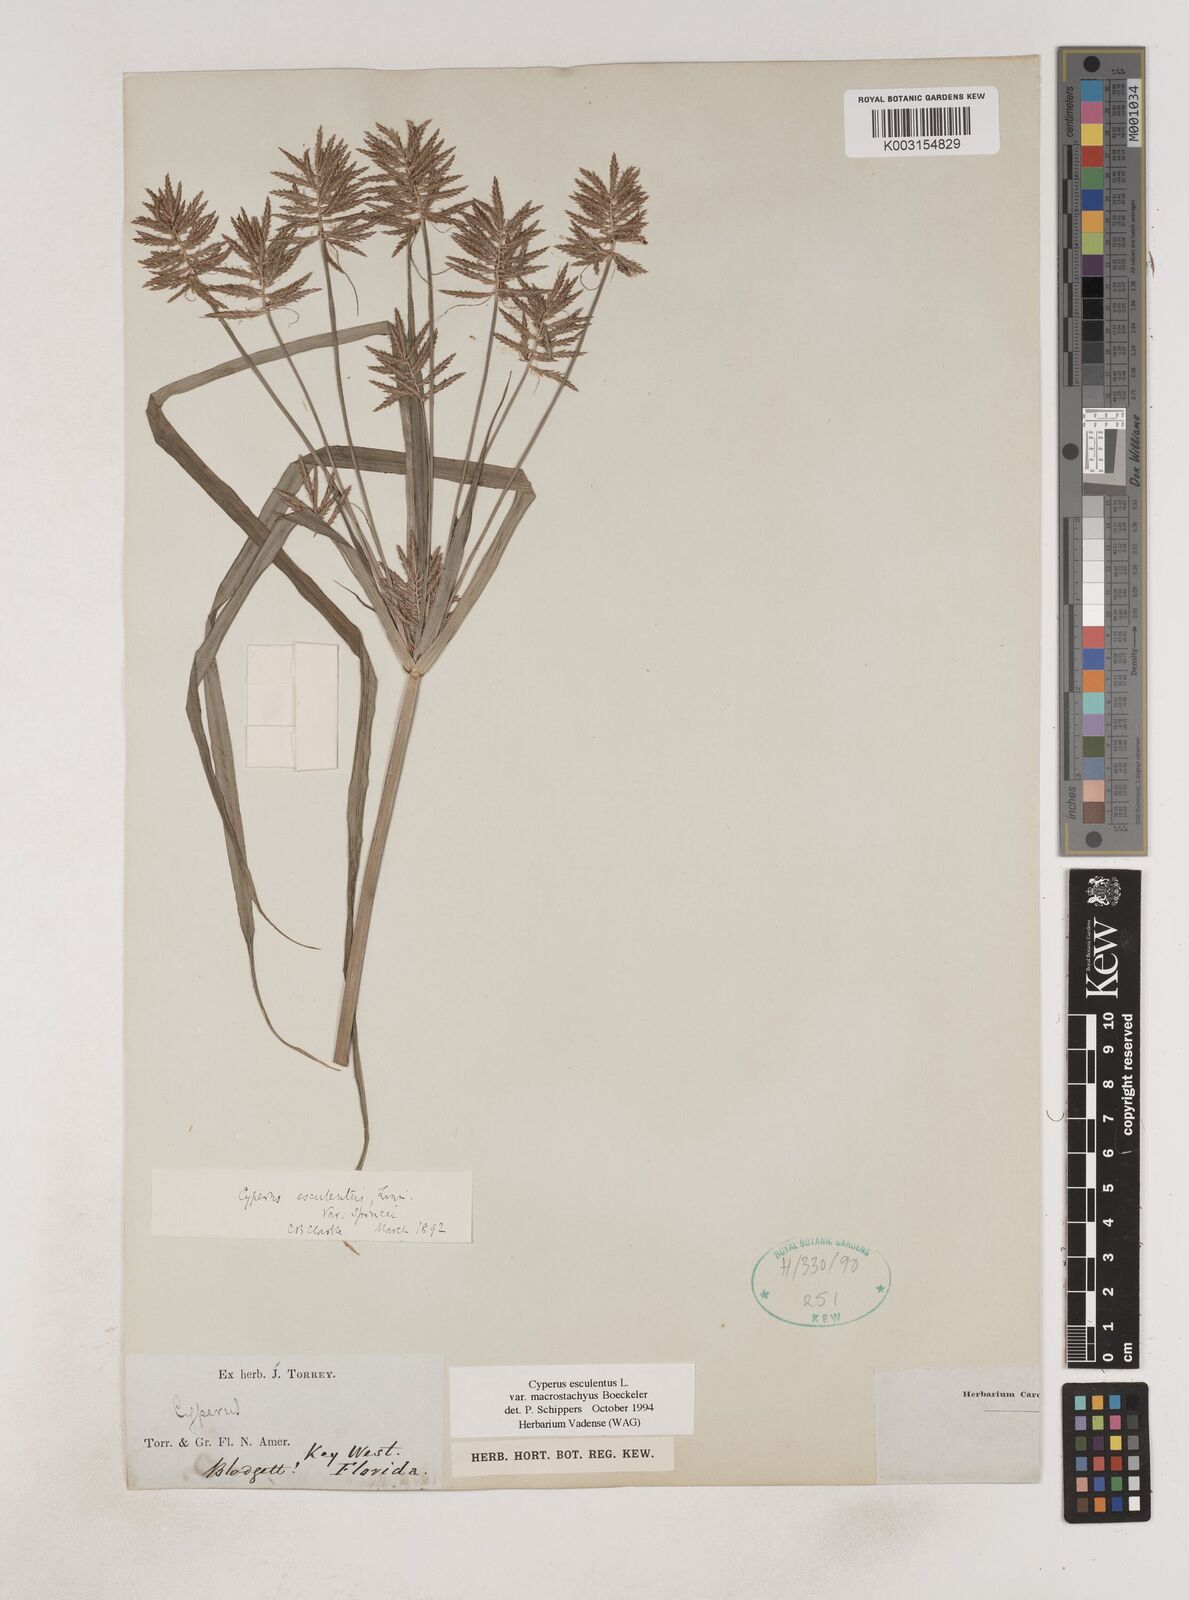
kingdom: Plantae
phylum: Tracheophyta
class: Liliopsida
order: Poales
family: Cyperaceae
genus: Cyperus
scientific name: Cyperus esculentus
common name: Yellow nutsedge
